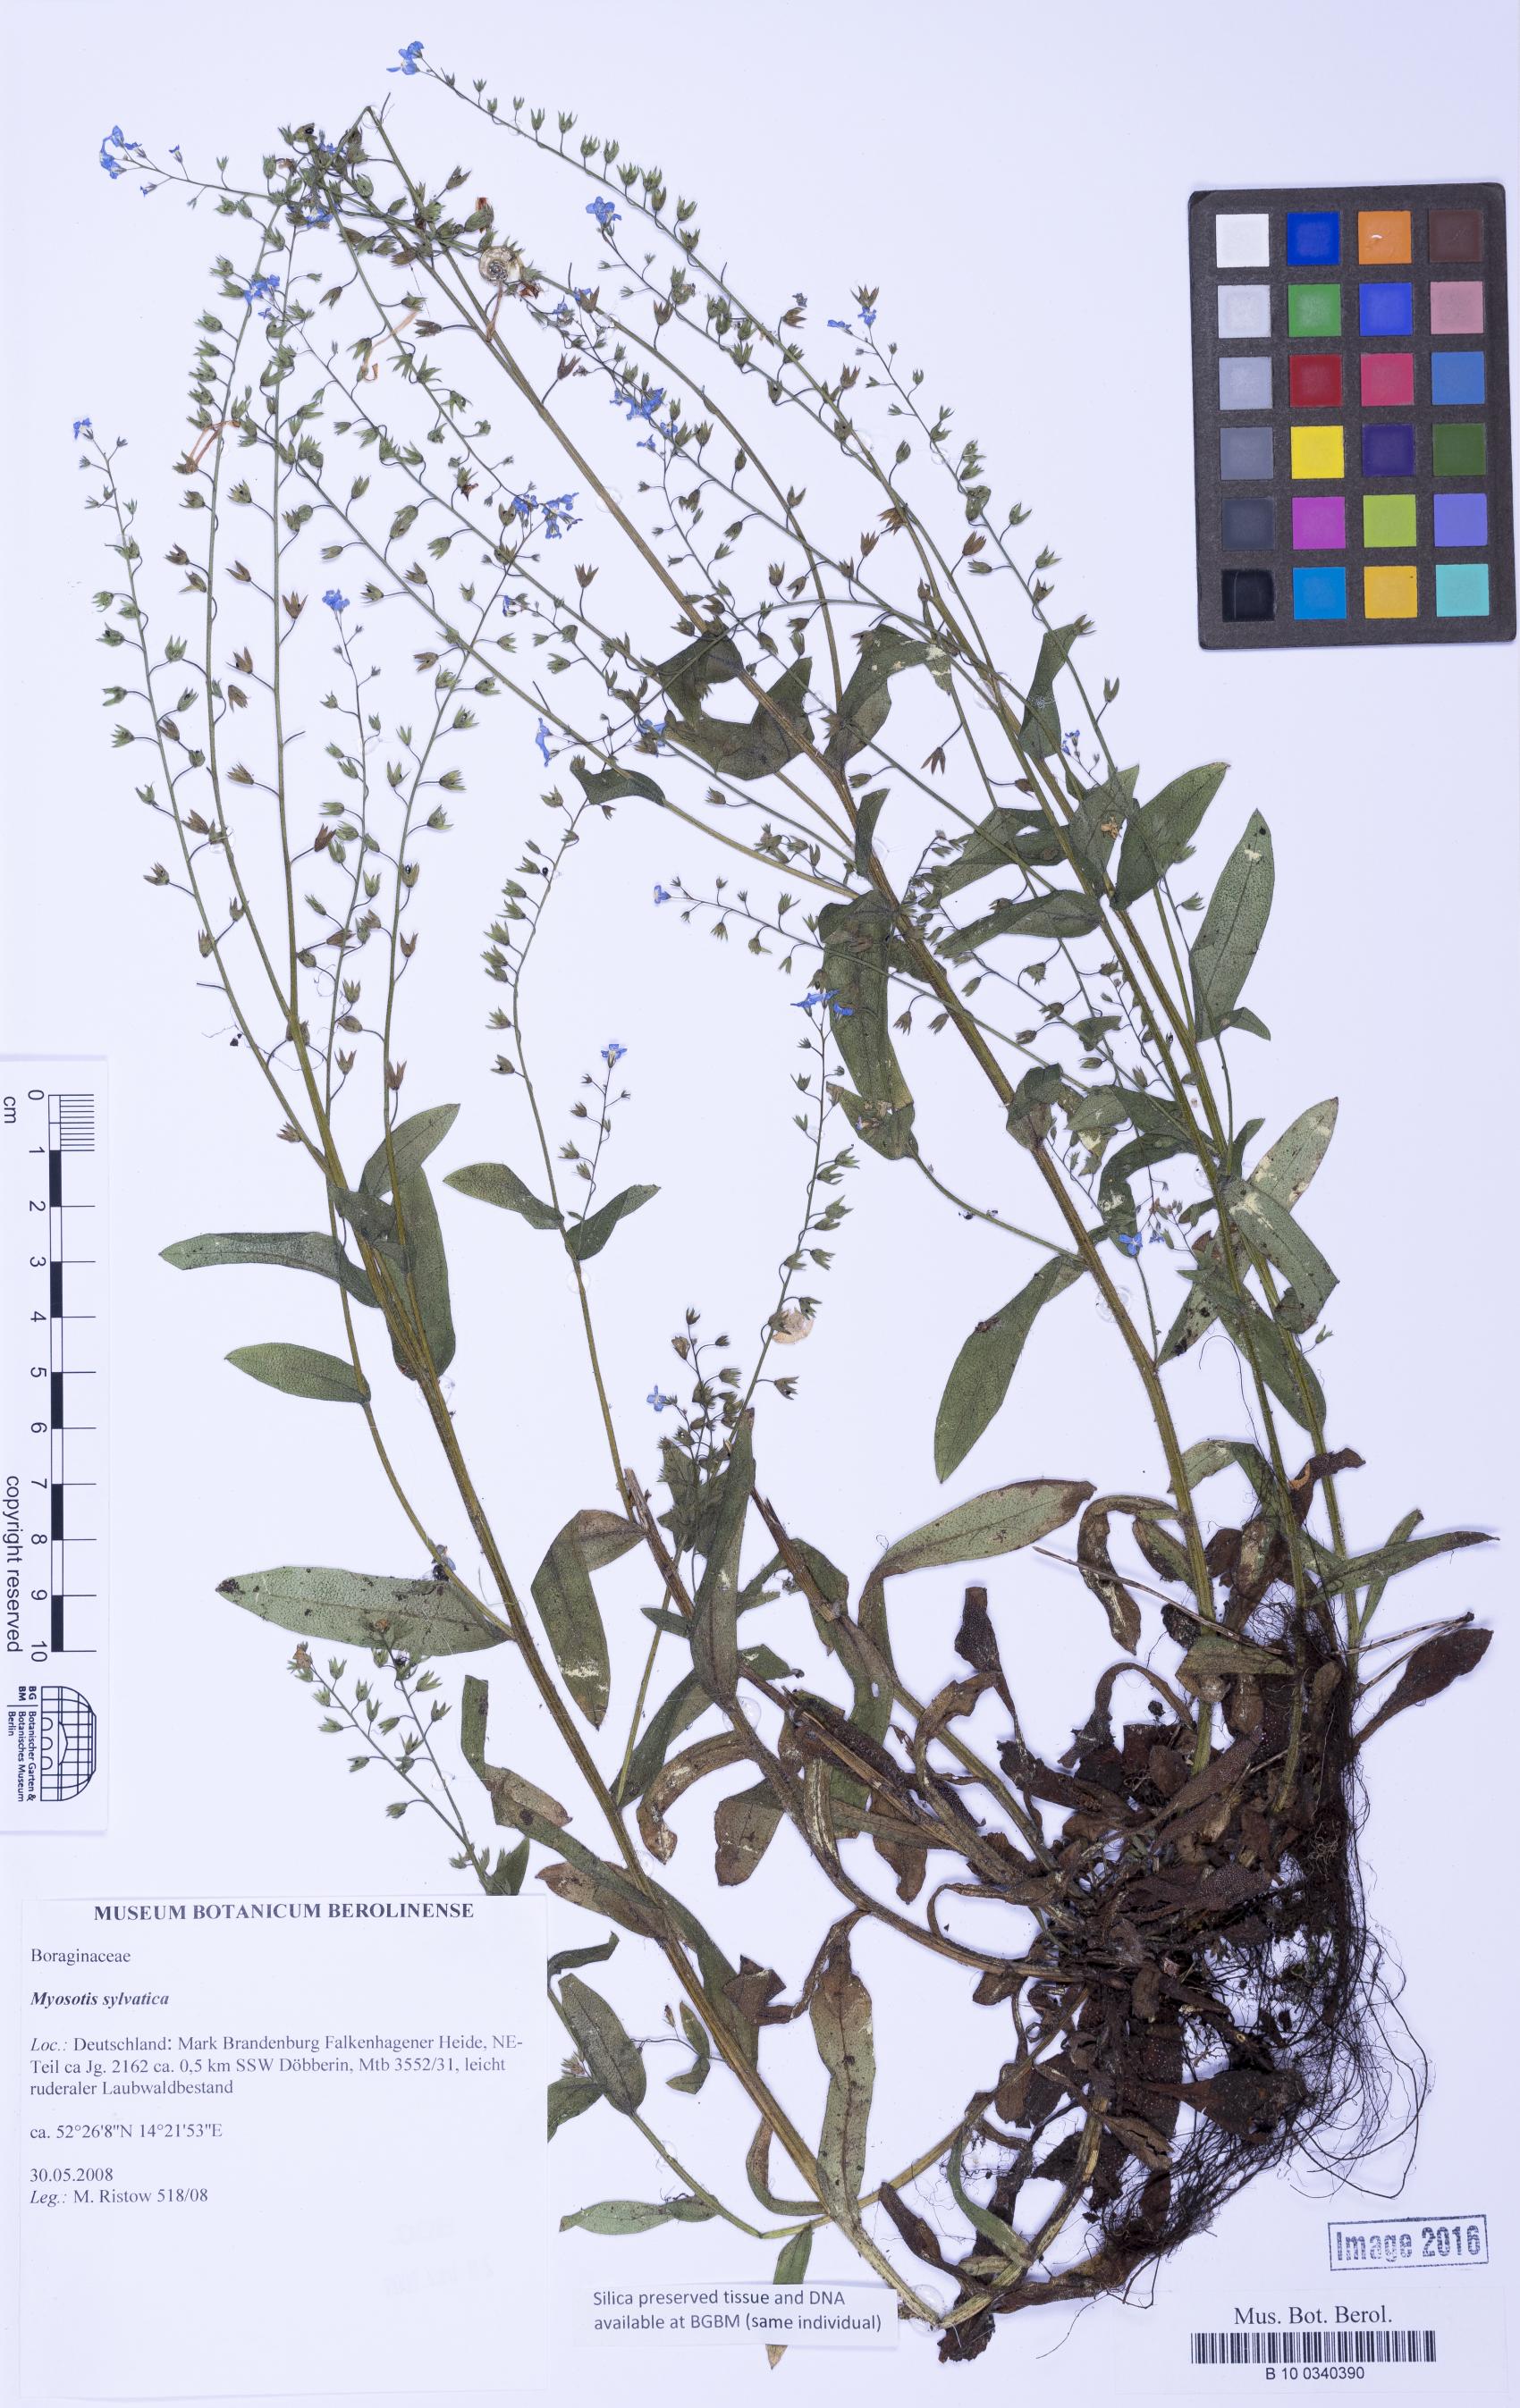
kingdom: Plantae
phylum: Tracheophyta
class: Magnoliopsida
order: Boraginales
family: Boraginaceae
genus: Myosotis
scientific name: Myosotis sylvatica
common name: Wood forget-me-not
